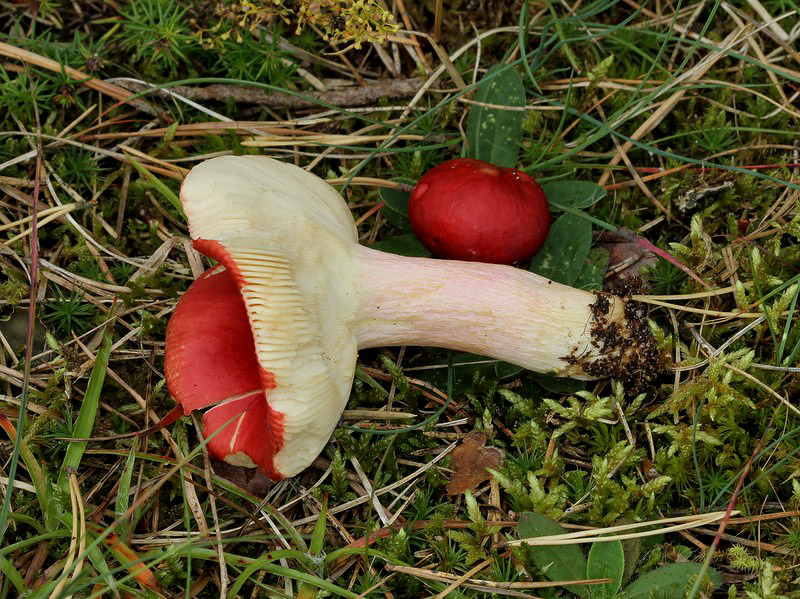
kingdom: Fungi
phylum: Basidiomycota
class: Agaricomycetes
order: Russulales
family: Russulaceae
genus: Russula
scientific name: Russula paludosa
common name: prægtig skørhat
